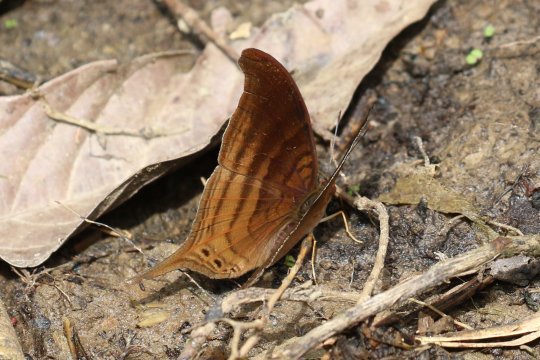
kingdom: Animalia
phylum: Arthropoda
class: Insecta
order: Lepidoptera
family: Nymphalidae
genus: Marpesia
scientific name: Marpesia themistocles
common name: Norica Daggerwing
